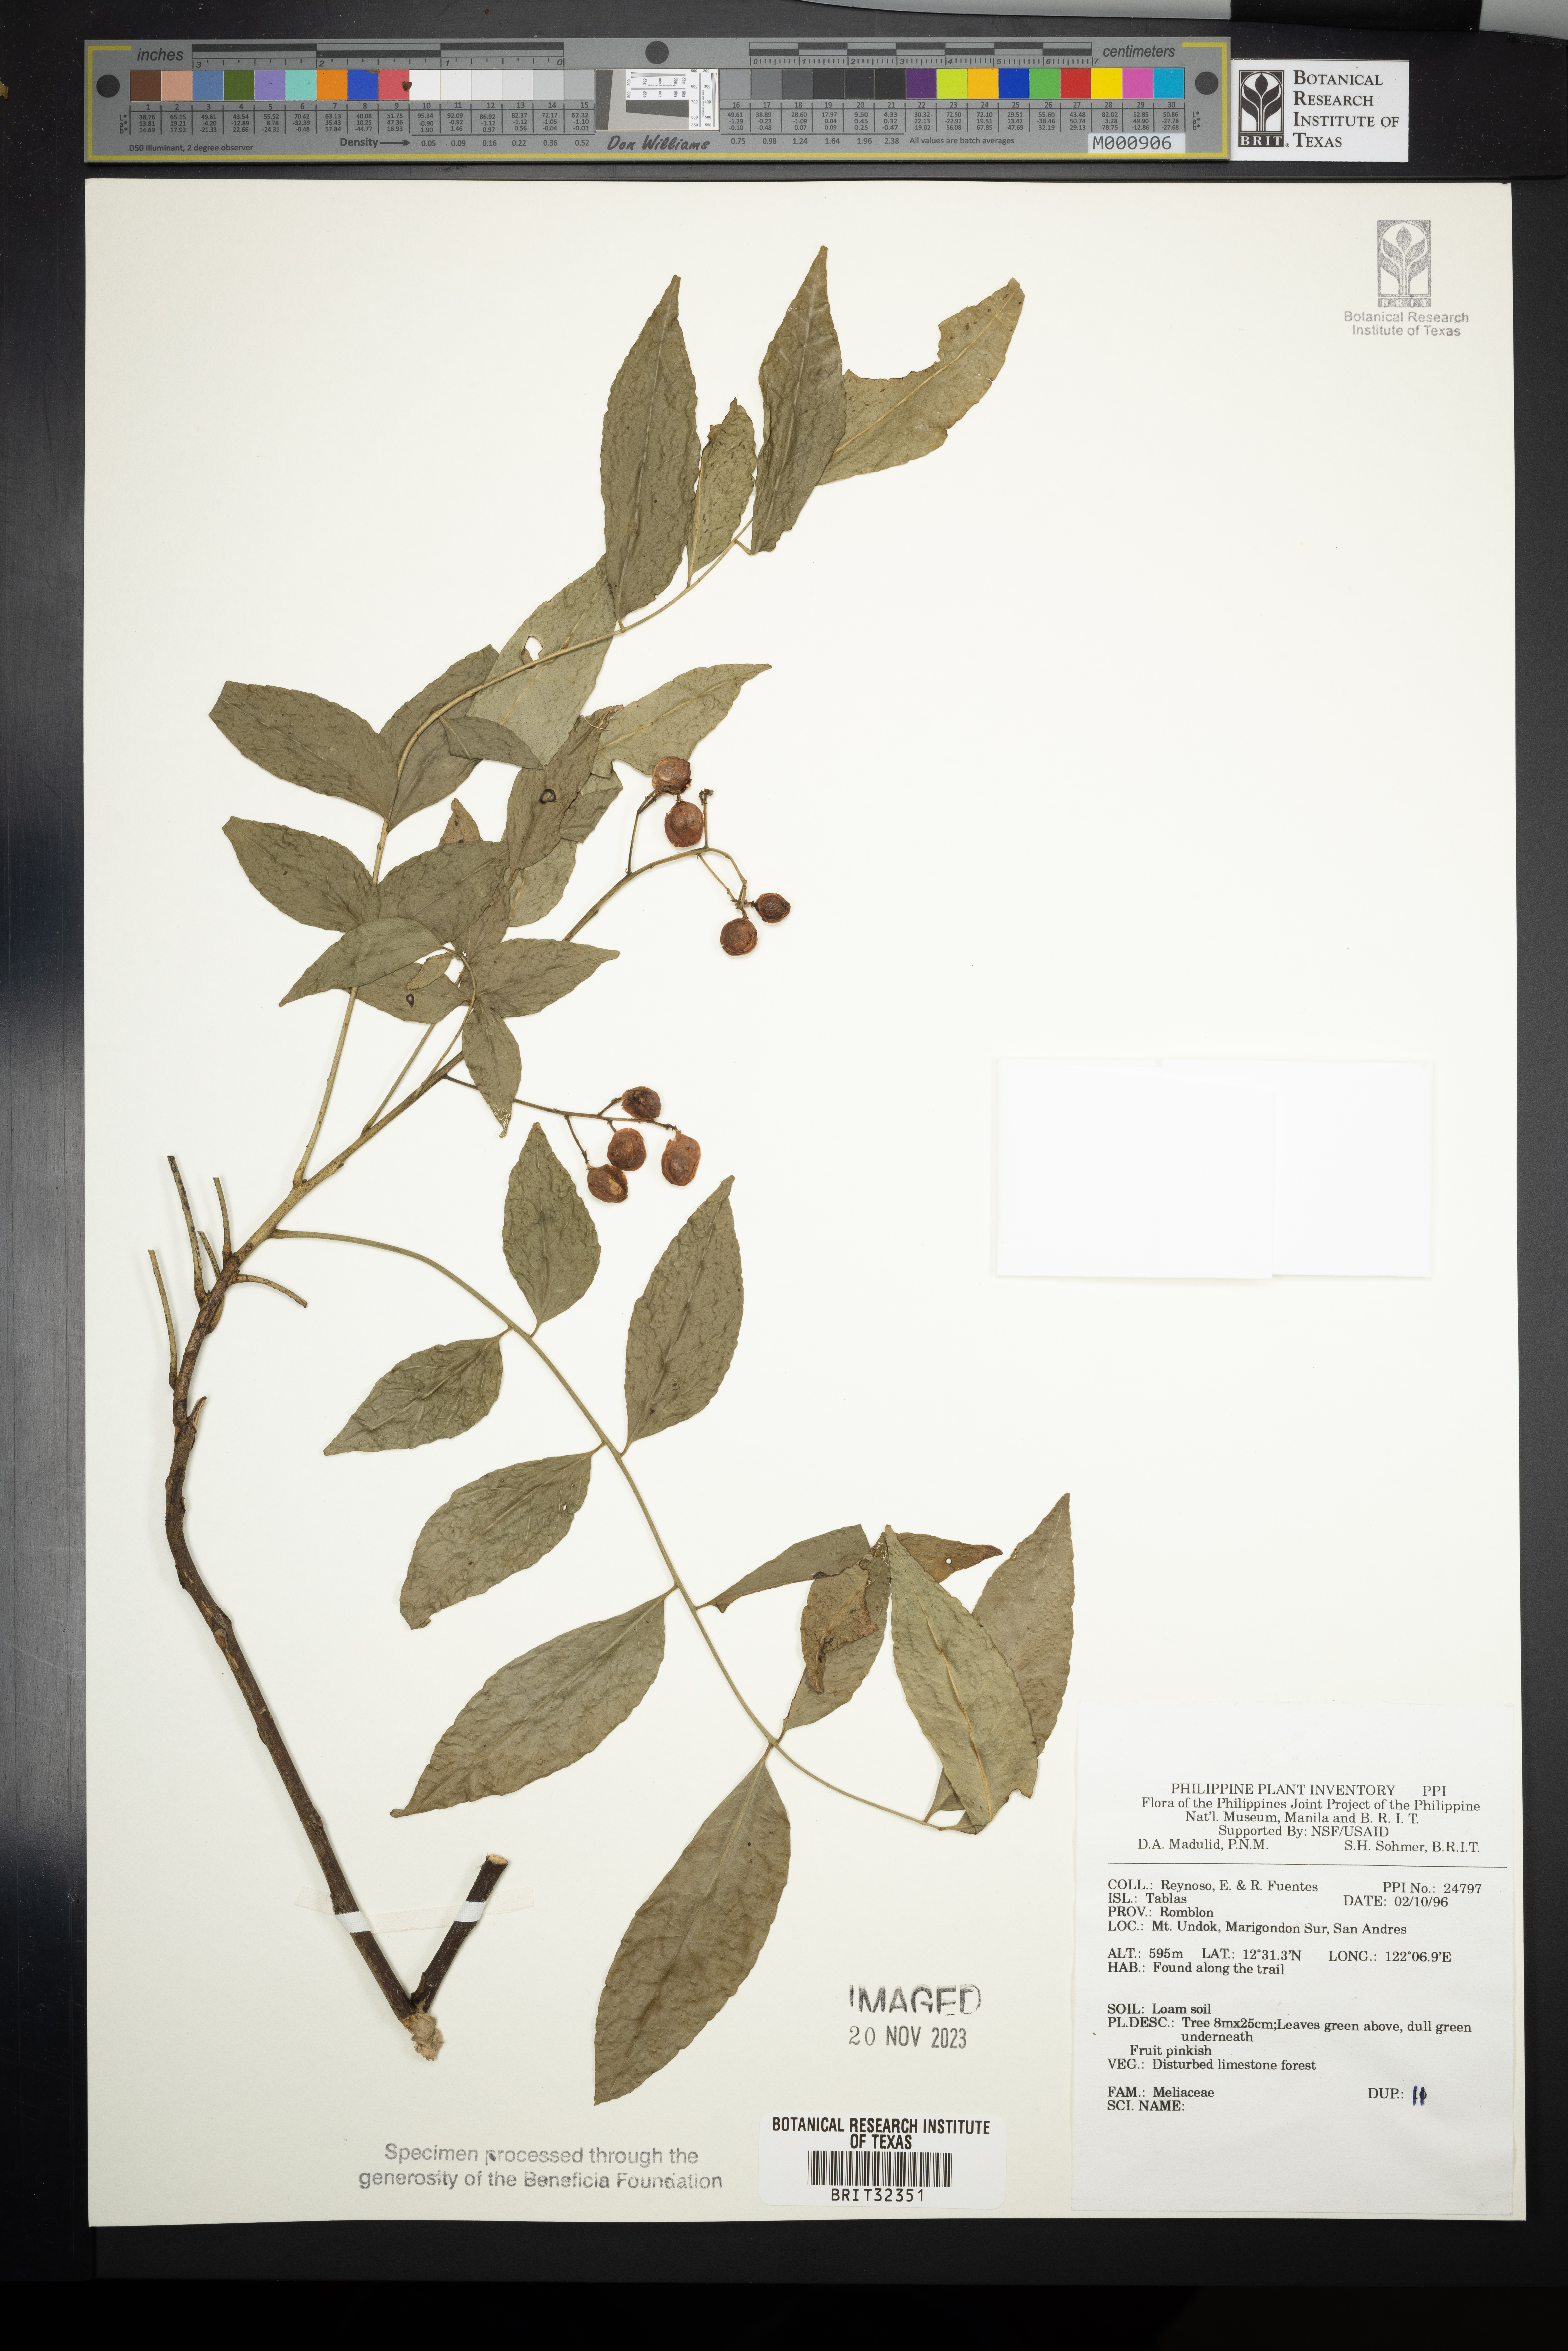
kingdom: Plantae
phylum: Tracheophyta
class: Magnoliopsida
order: Sapindales
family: Meliaceae
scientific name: Meliaceae
